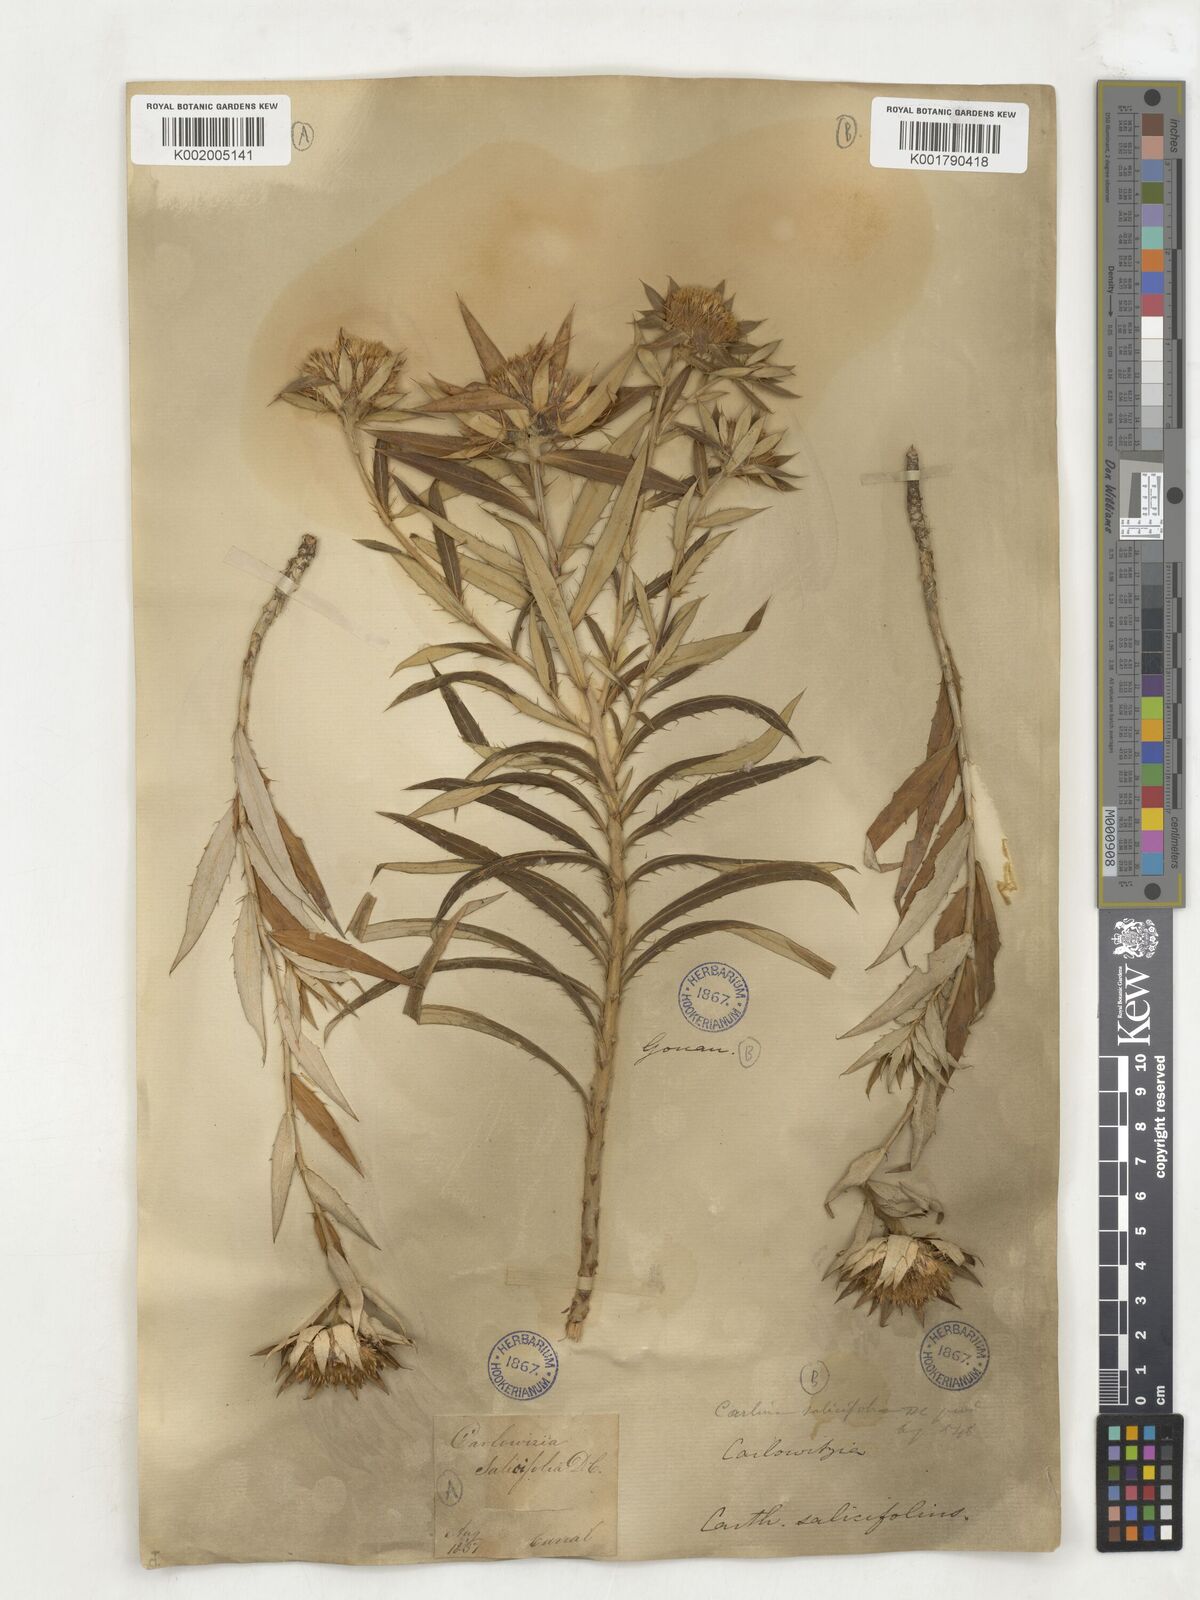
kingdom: Plantae
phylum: Tracheophyta
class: Magnoliopsida
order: Asterales
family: Asteraceae
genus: Carlina
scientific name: Carlina salicifolia
